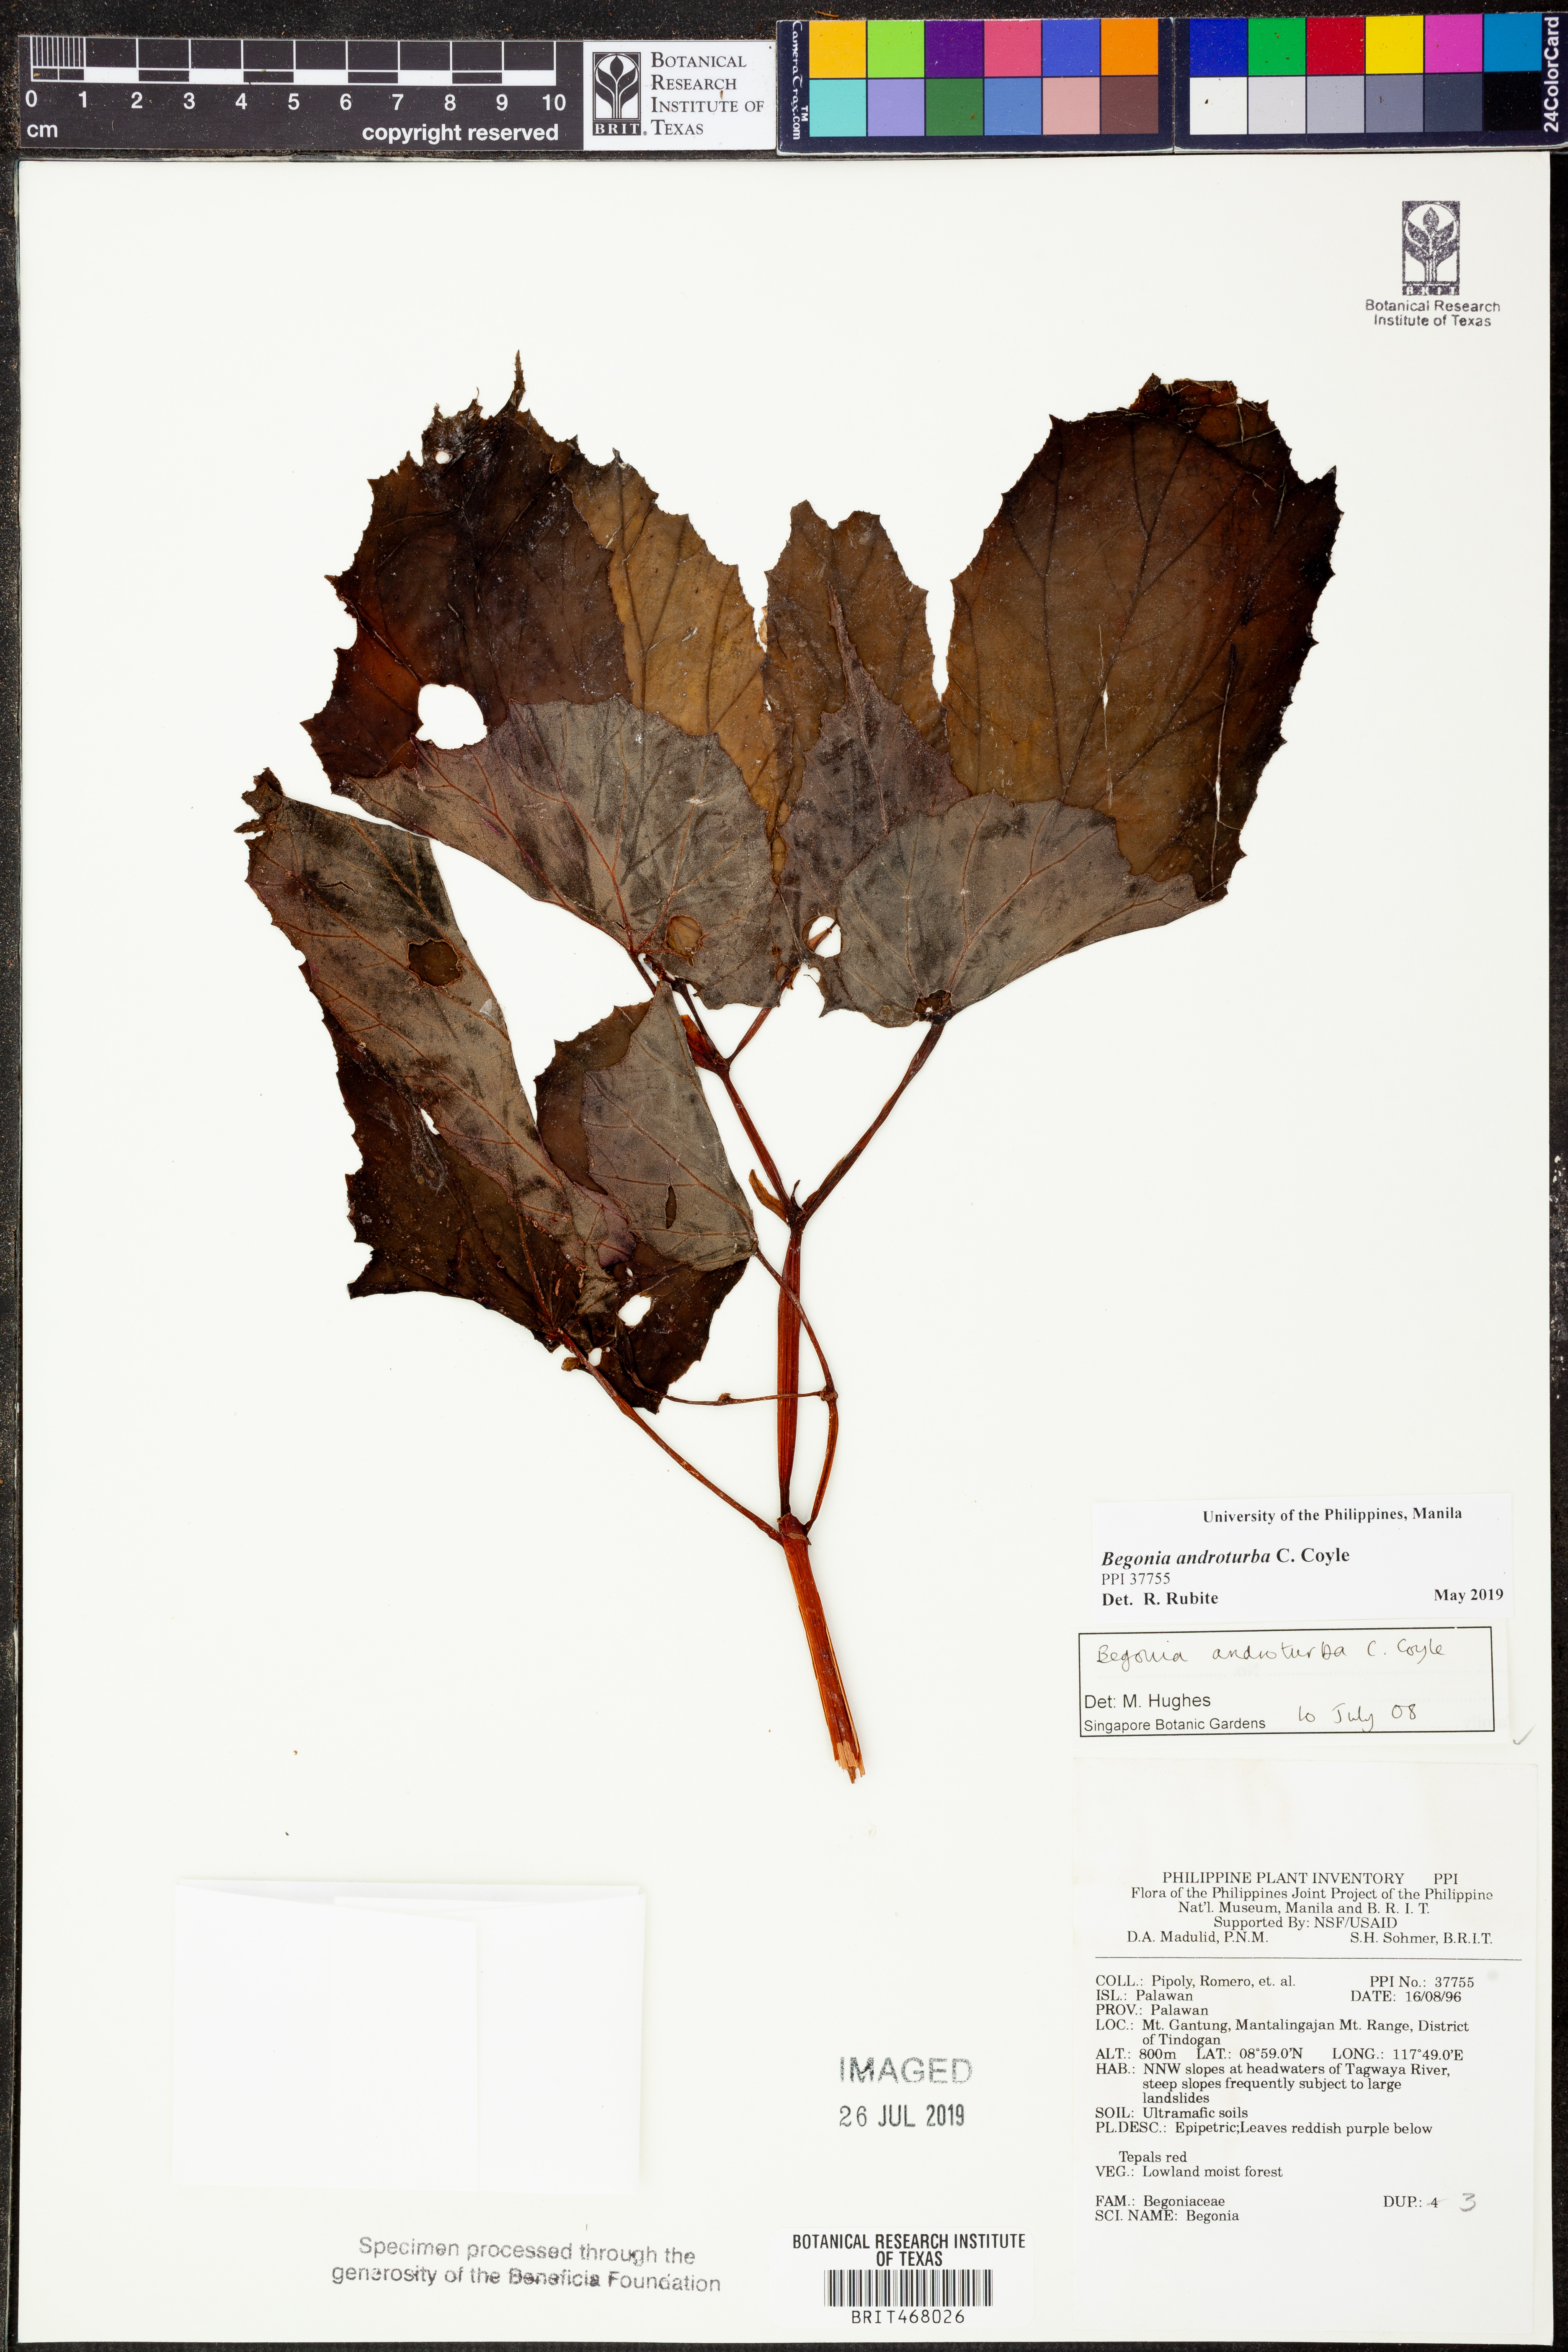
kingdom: Plantae
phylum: Tracheophyta
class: Magnoliopsida
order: Cucurbitales
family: Begoniaceae
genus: Begonia
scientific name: Begonia androturba
